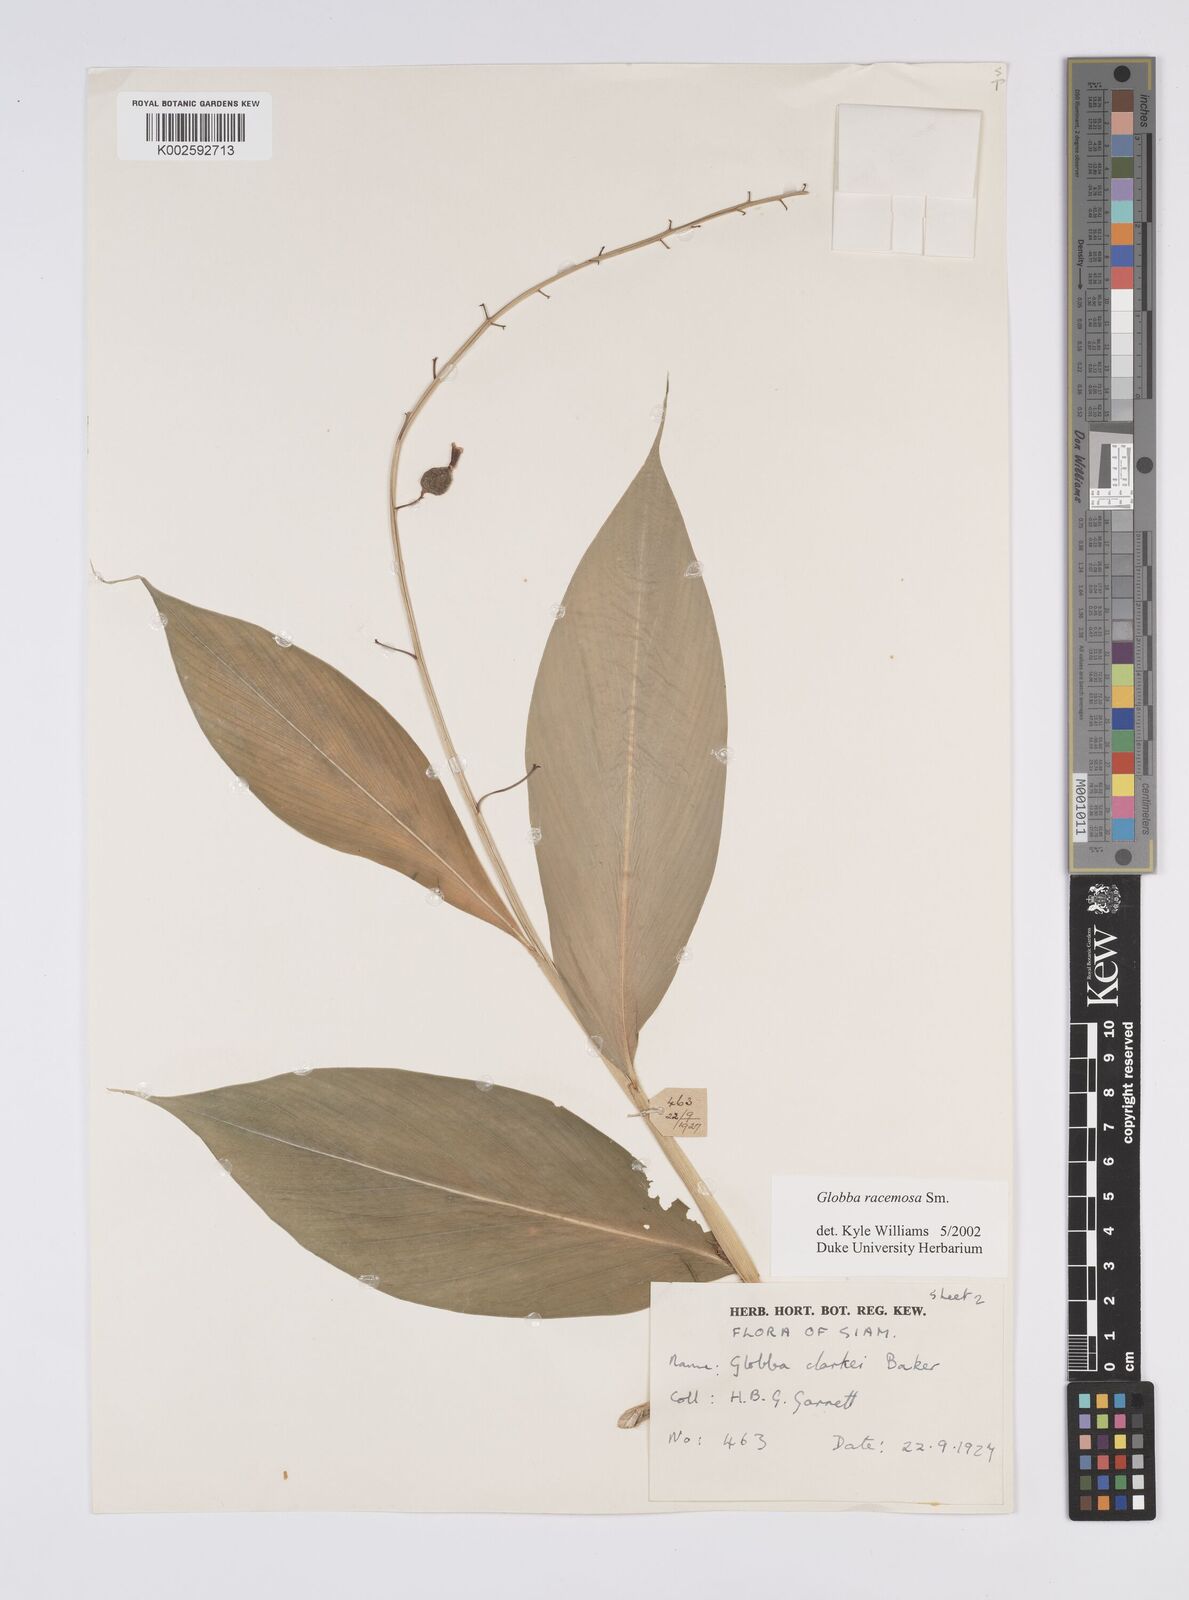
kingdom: Plantae
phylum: Tracheophyta
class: Liliopsida
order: Zingiberales
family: Zingiberaceae
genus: Globba
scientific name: Globba racemosa
